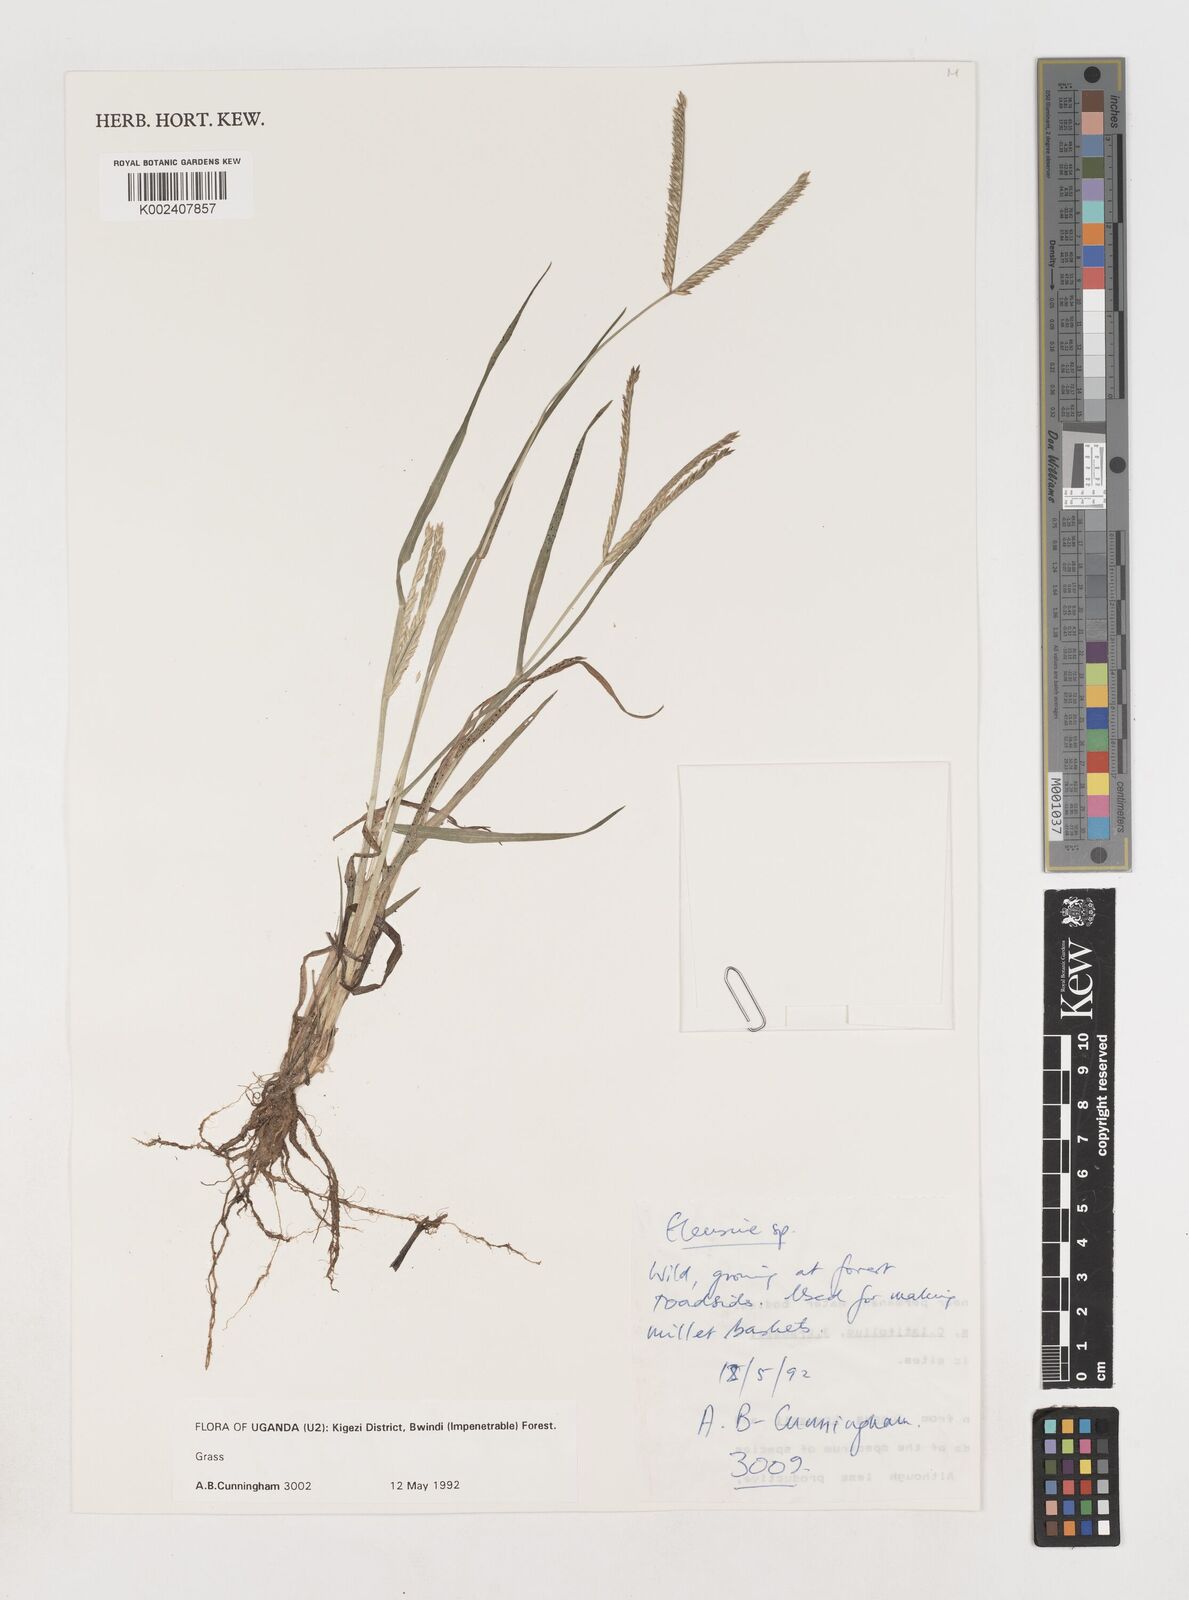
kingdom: Plantae
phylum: Tracheophyta
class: Liliopsida
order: Poales
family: Poaceae
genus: Eleusine
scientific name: Eleusine africana
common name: Wild african finger millet
